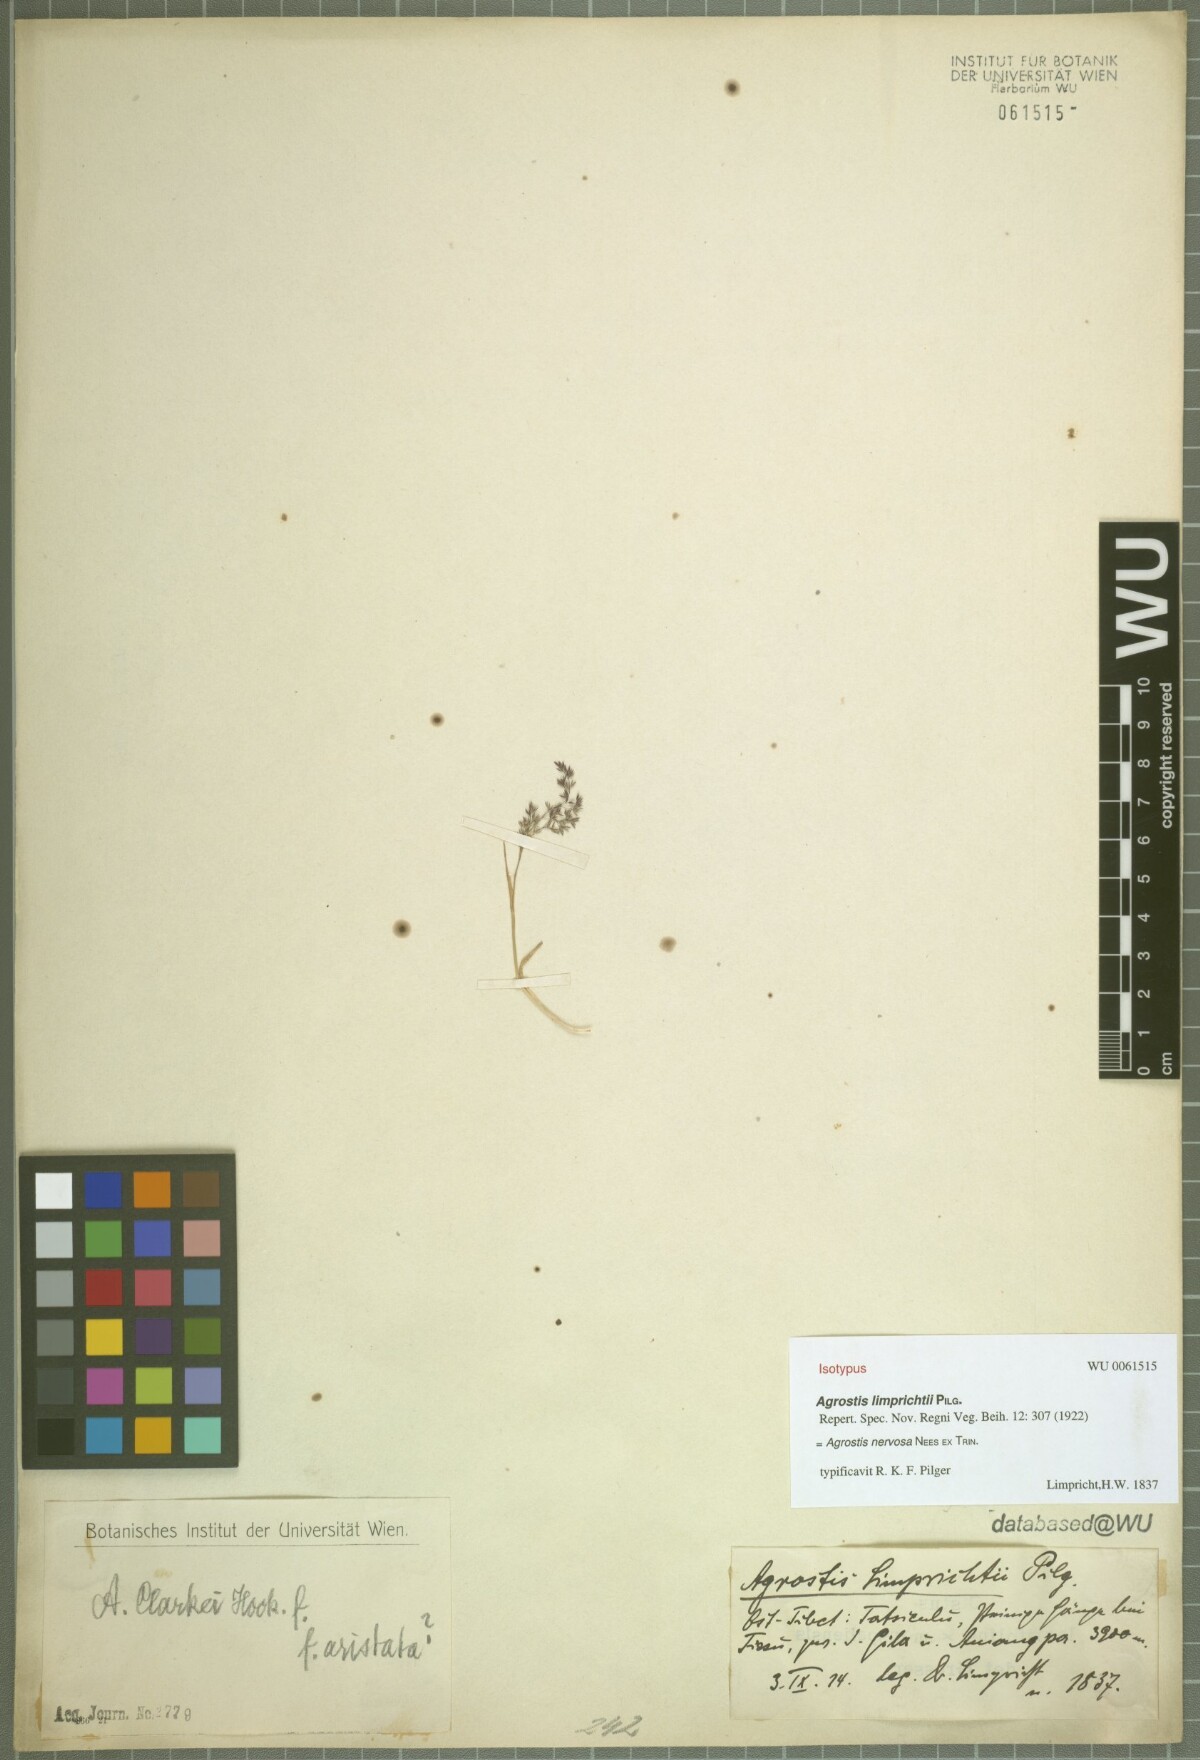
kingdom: Plantae
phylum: Tracheophyta
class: Liliopsida
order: Poales
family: Poaceae
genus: Agrostis
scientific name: Agrostis nervosa
